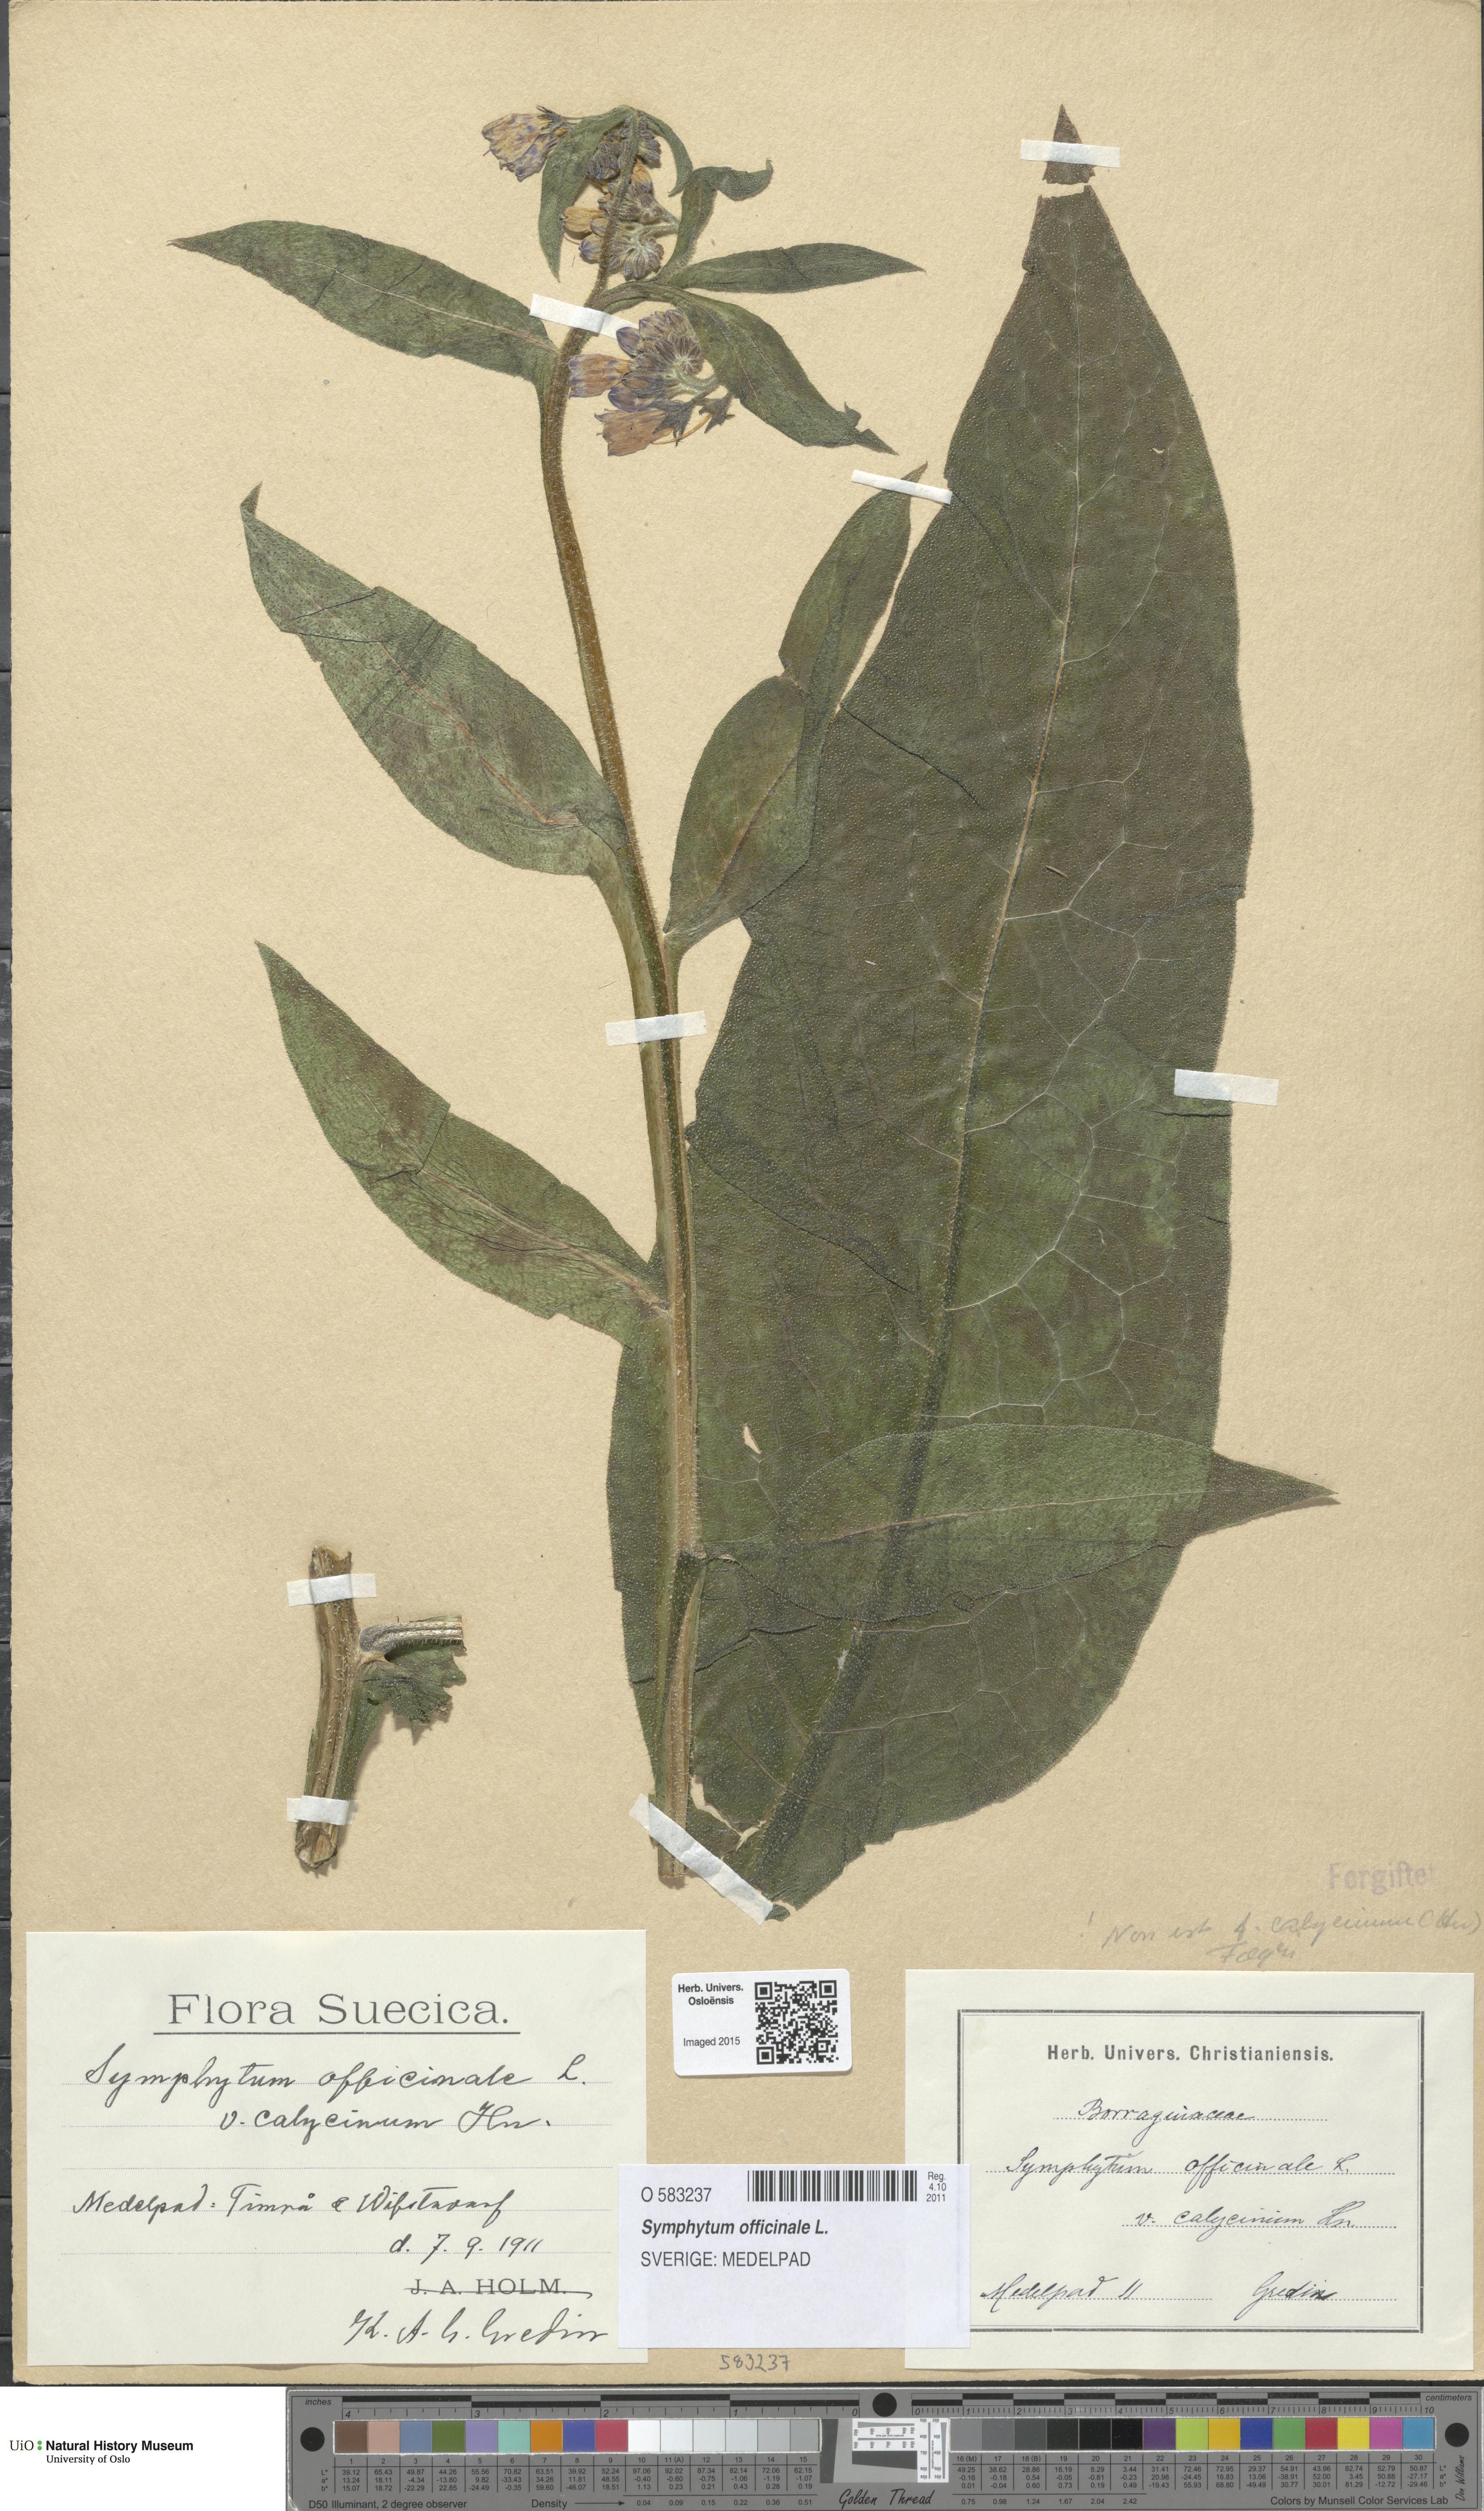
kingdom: Plantae
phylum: Tracheophyta
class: Magnoliopsida
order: Boraginales
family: Boraginaceae
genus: Symphytum
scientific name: Symphytum officinale
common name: Common comfrey
